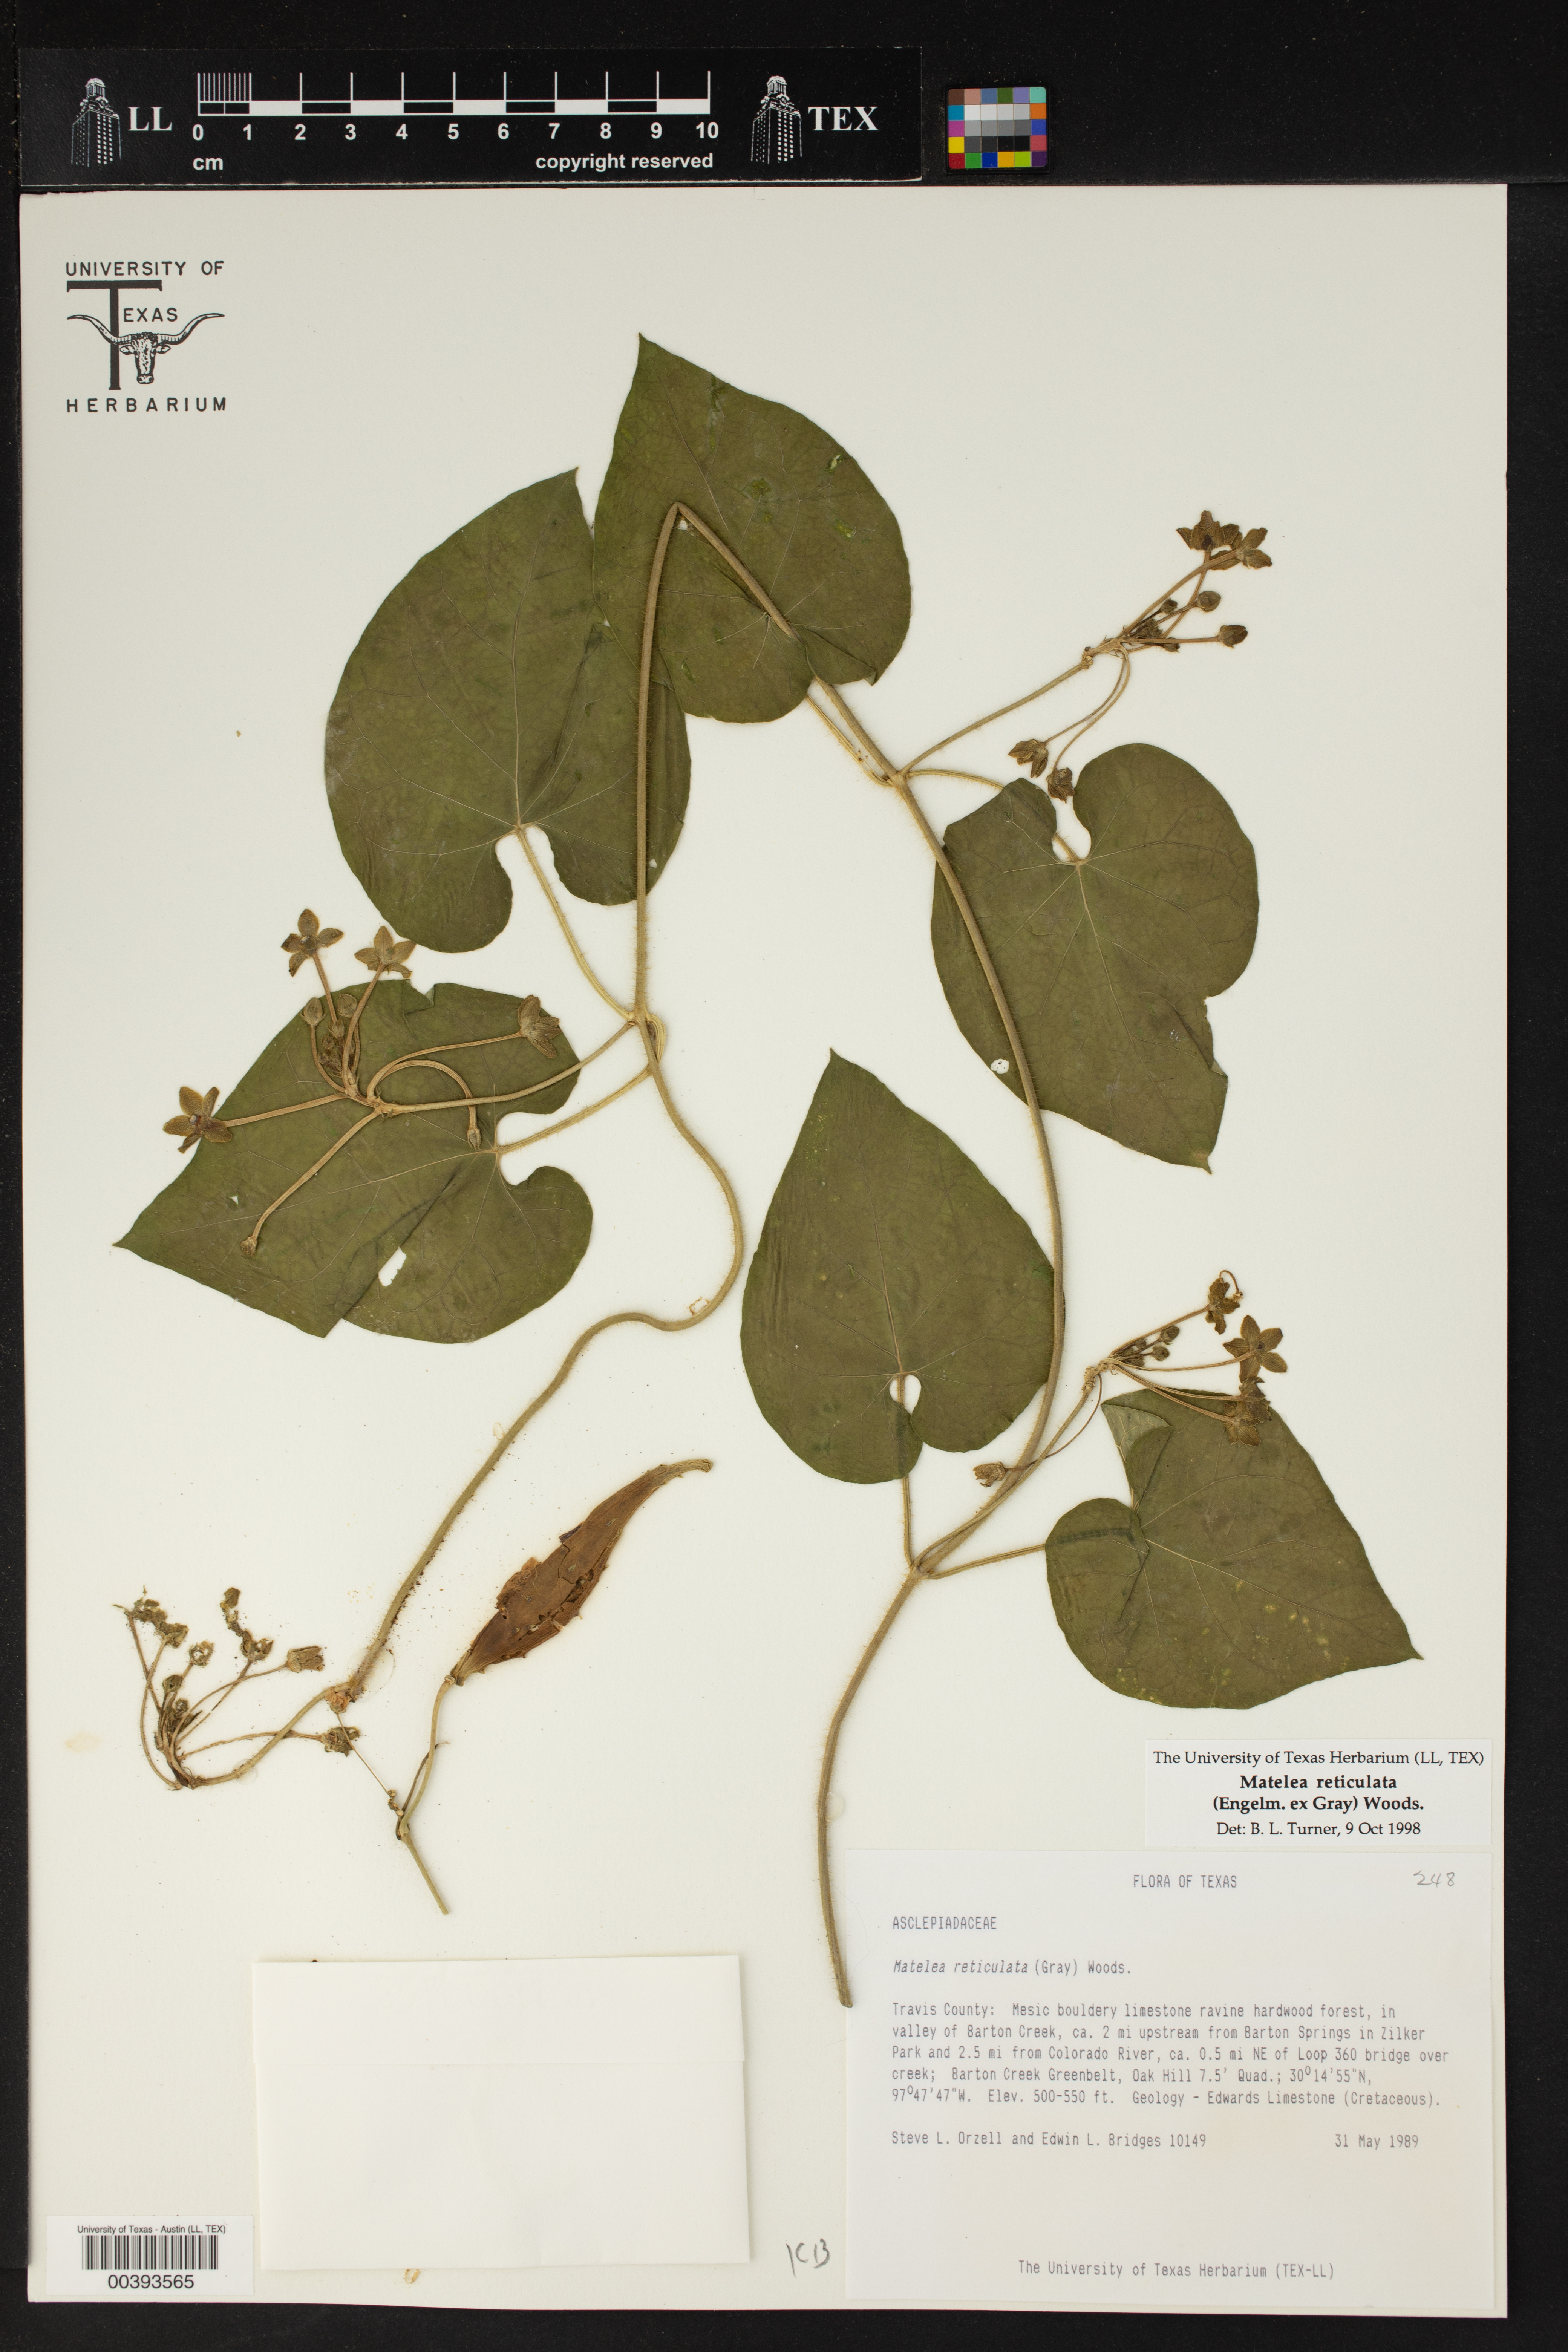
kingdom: Plantae
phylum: Tracheophyta
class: Magnoliopsida
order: Gentianales
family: Apocynaceae
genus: Dictyanthus
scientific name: Dictyanthus reticulatus
